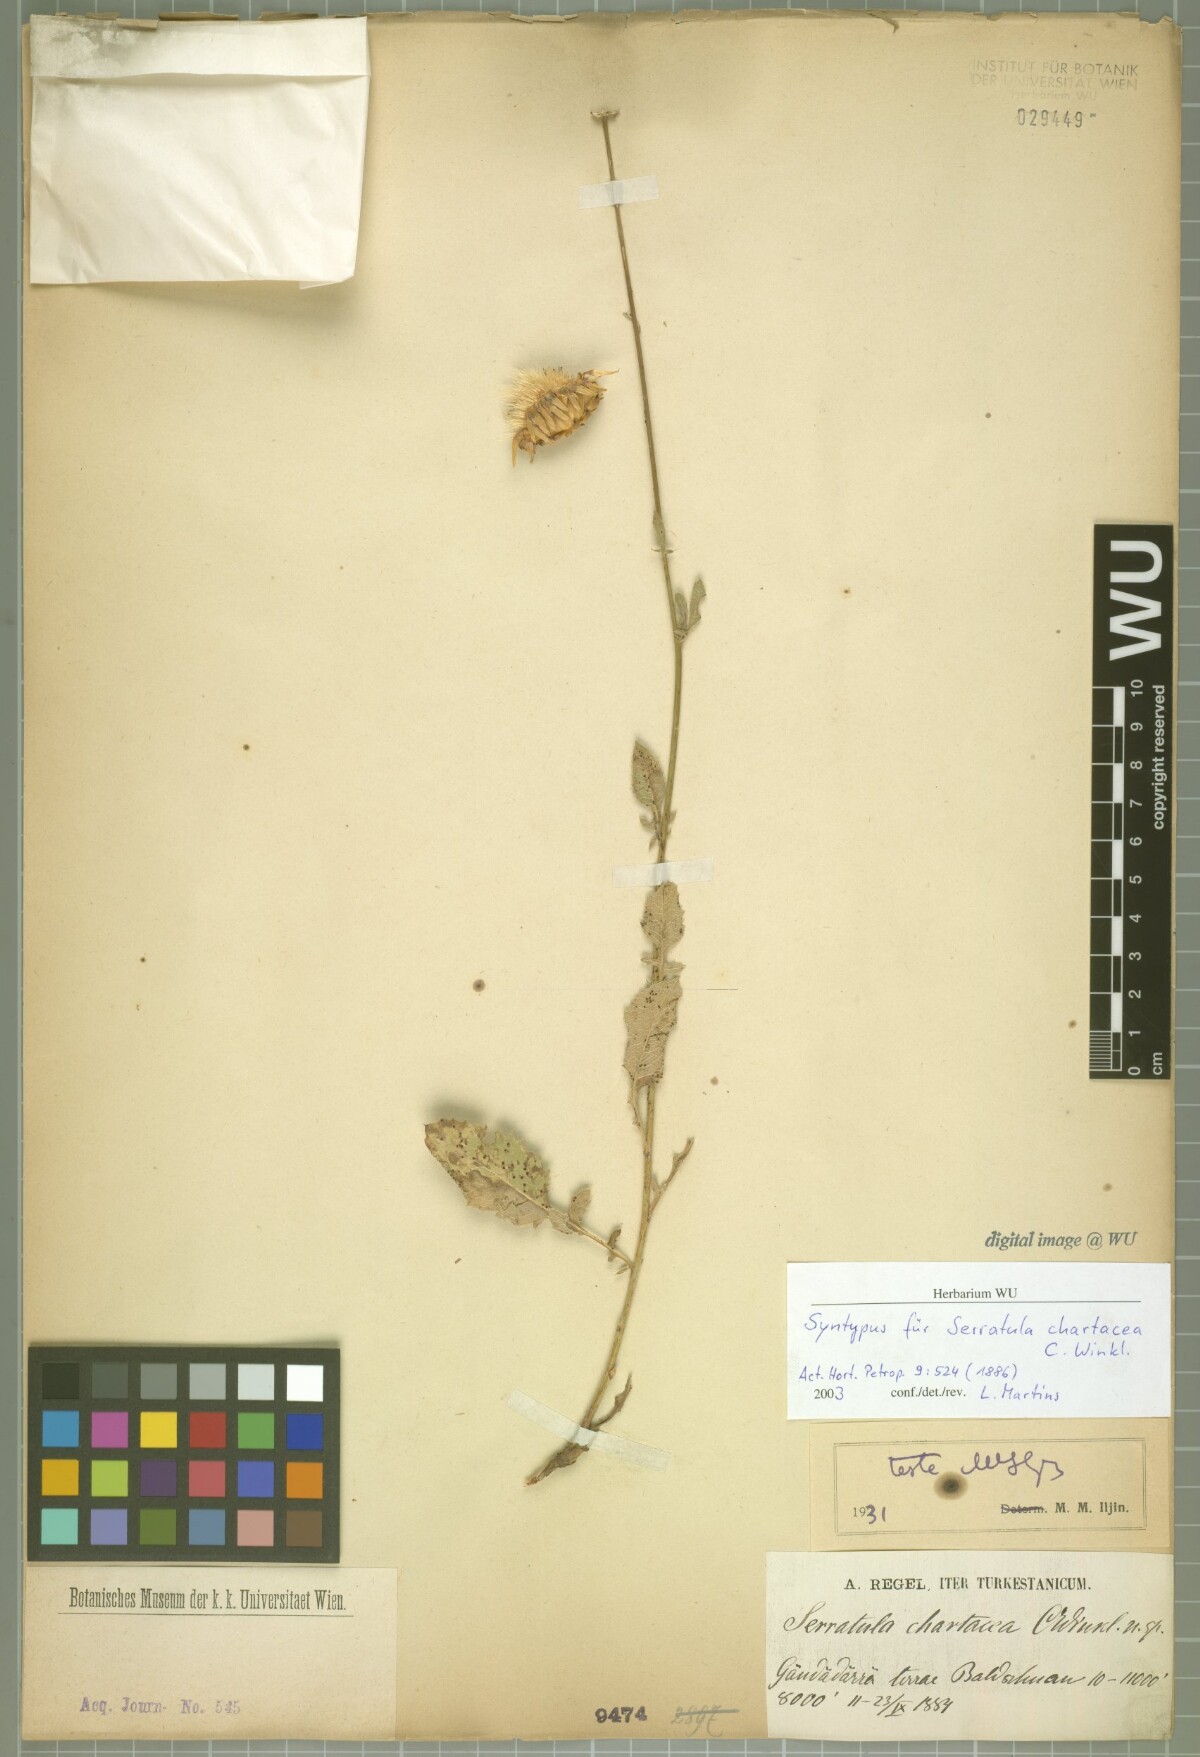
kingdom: Plantae
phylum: Tracheophyta
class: Magnoliopsida
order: Asterales
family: Asteraceae
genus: Klasea
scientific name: Klasea chartacea
